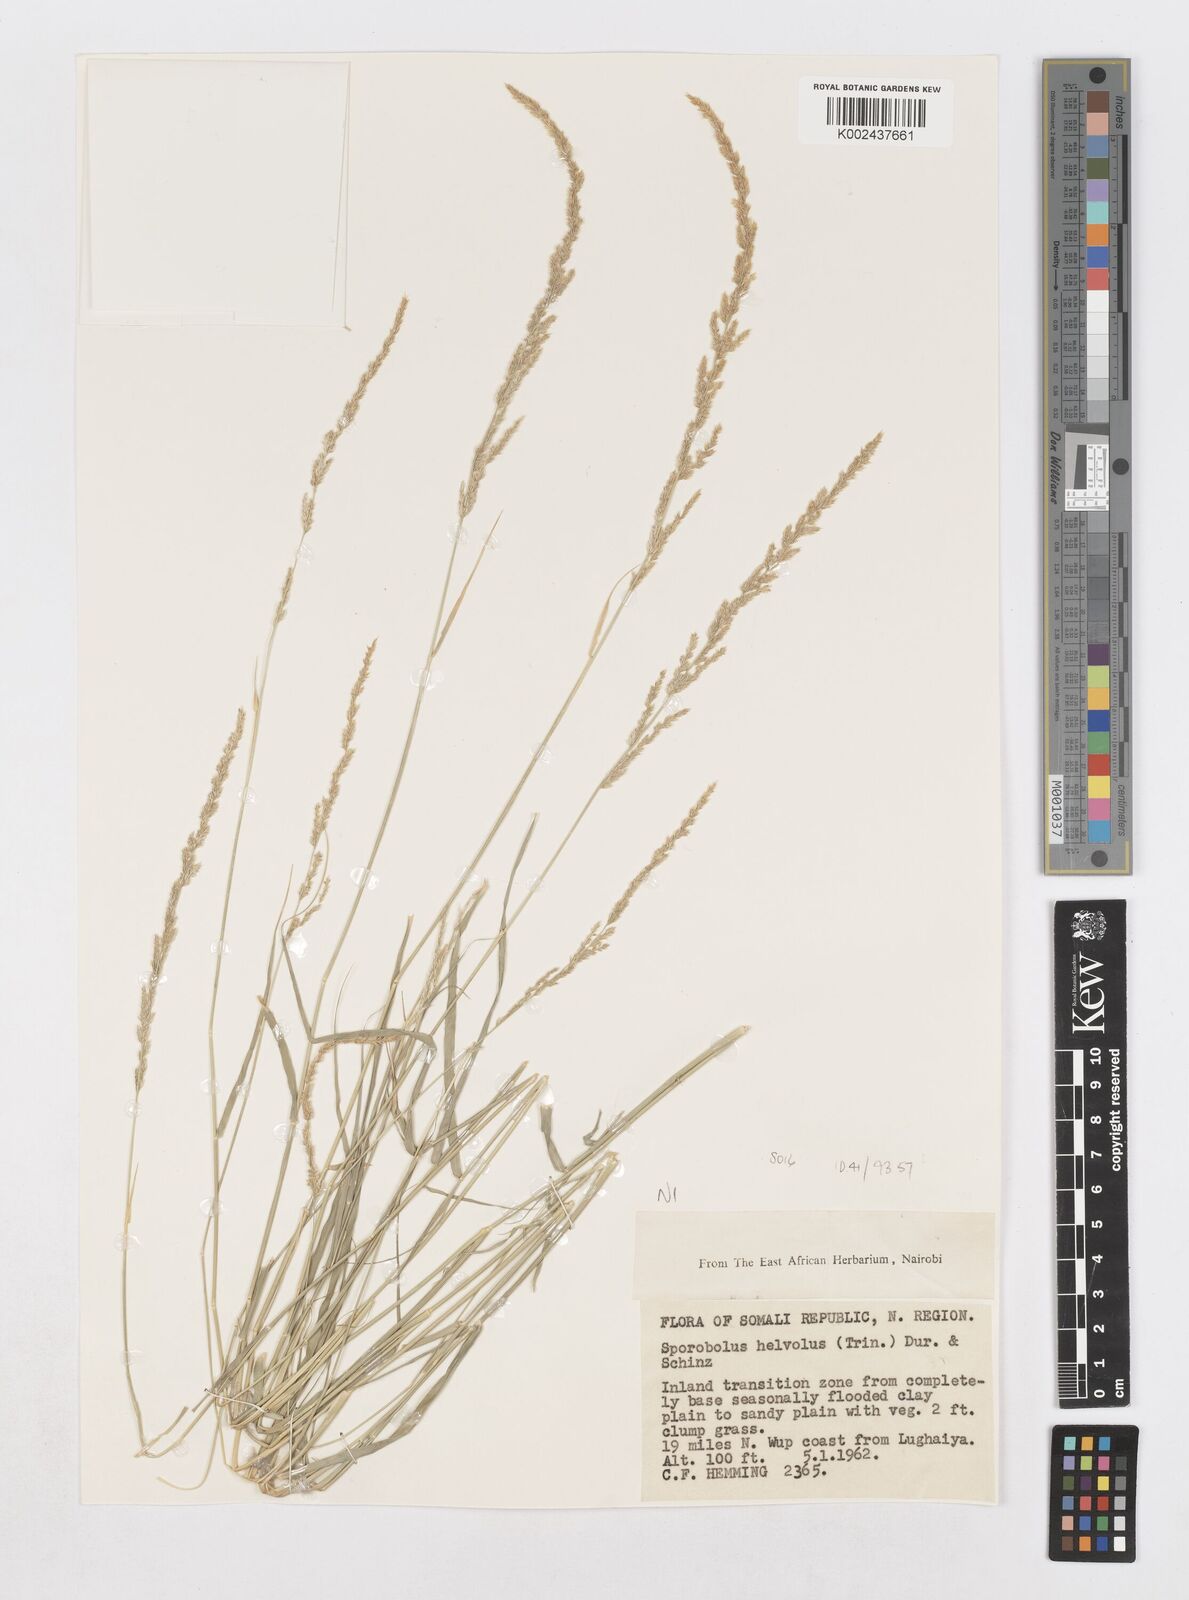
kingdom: Plantae
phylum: Tracheophyta
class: Liliopsida
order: Poales
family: Poaceae
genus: Sporobolus
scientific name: Sporobolus helvolus
